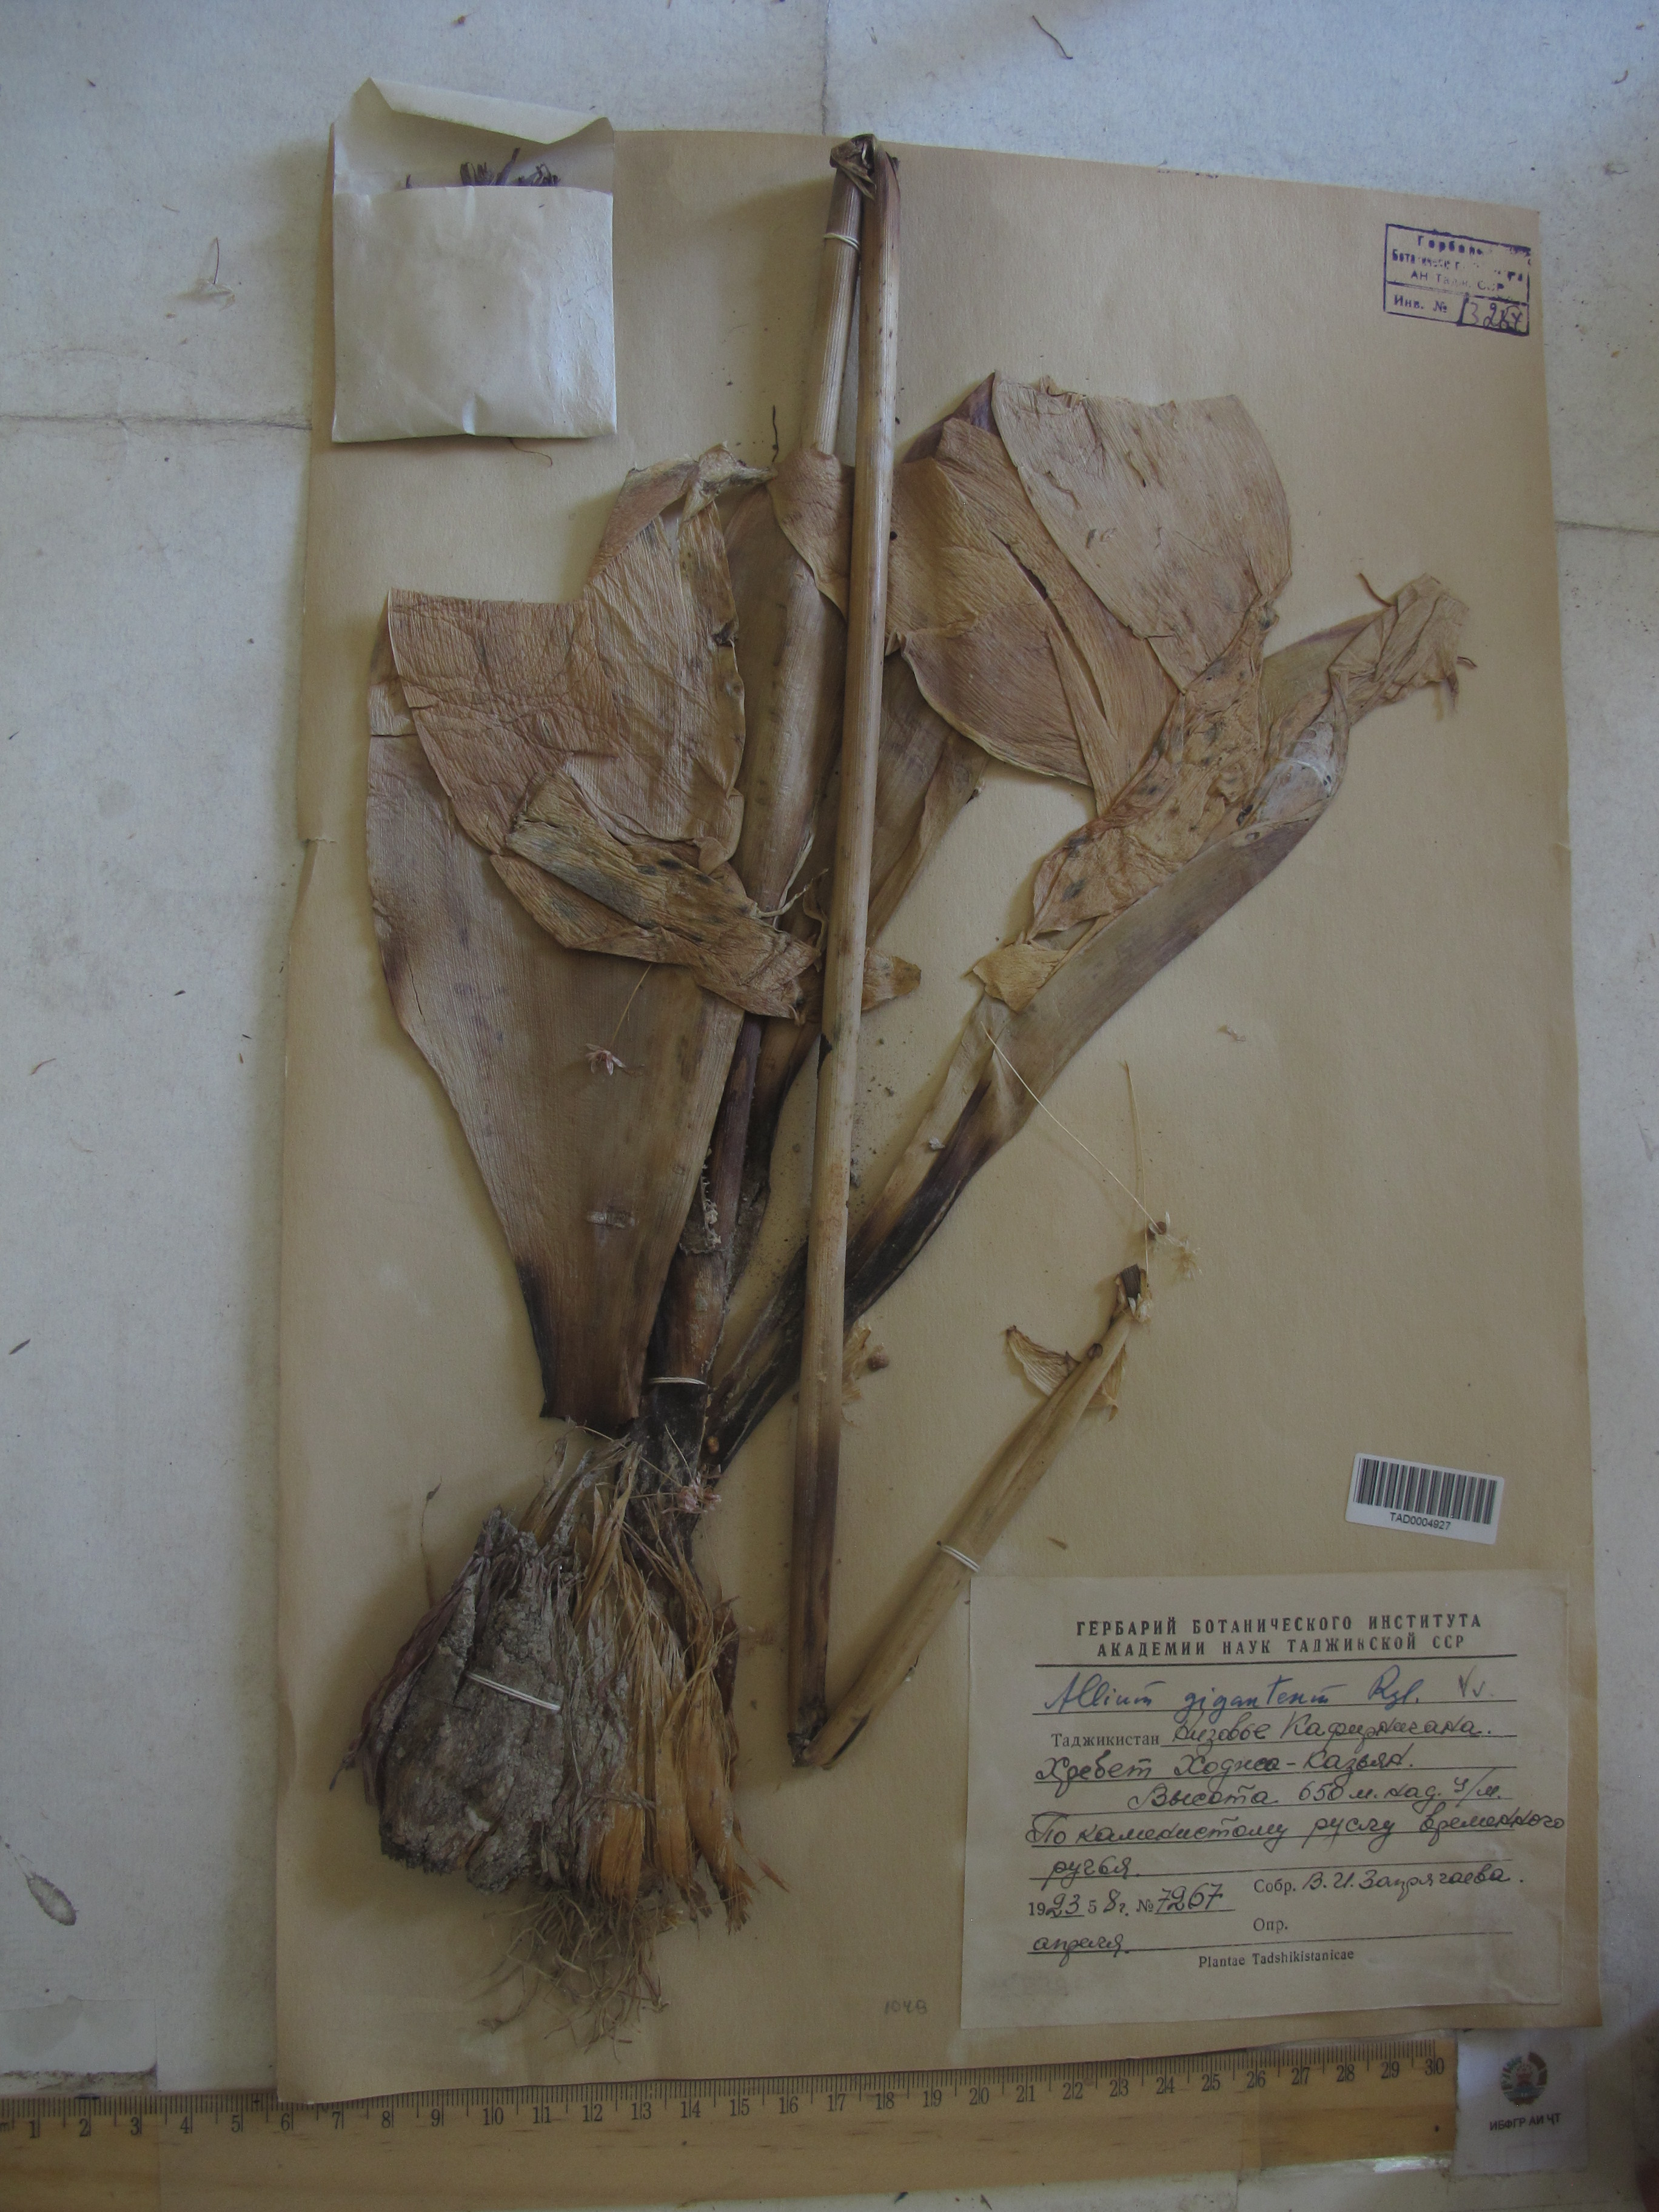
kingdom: Plantae
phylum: Tracheophyta
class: Liliopsida
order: Asparagales
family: Amaryllidaceae
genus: Allium
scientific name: Allium giganteum
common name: Giant onion
